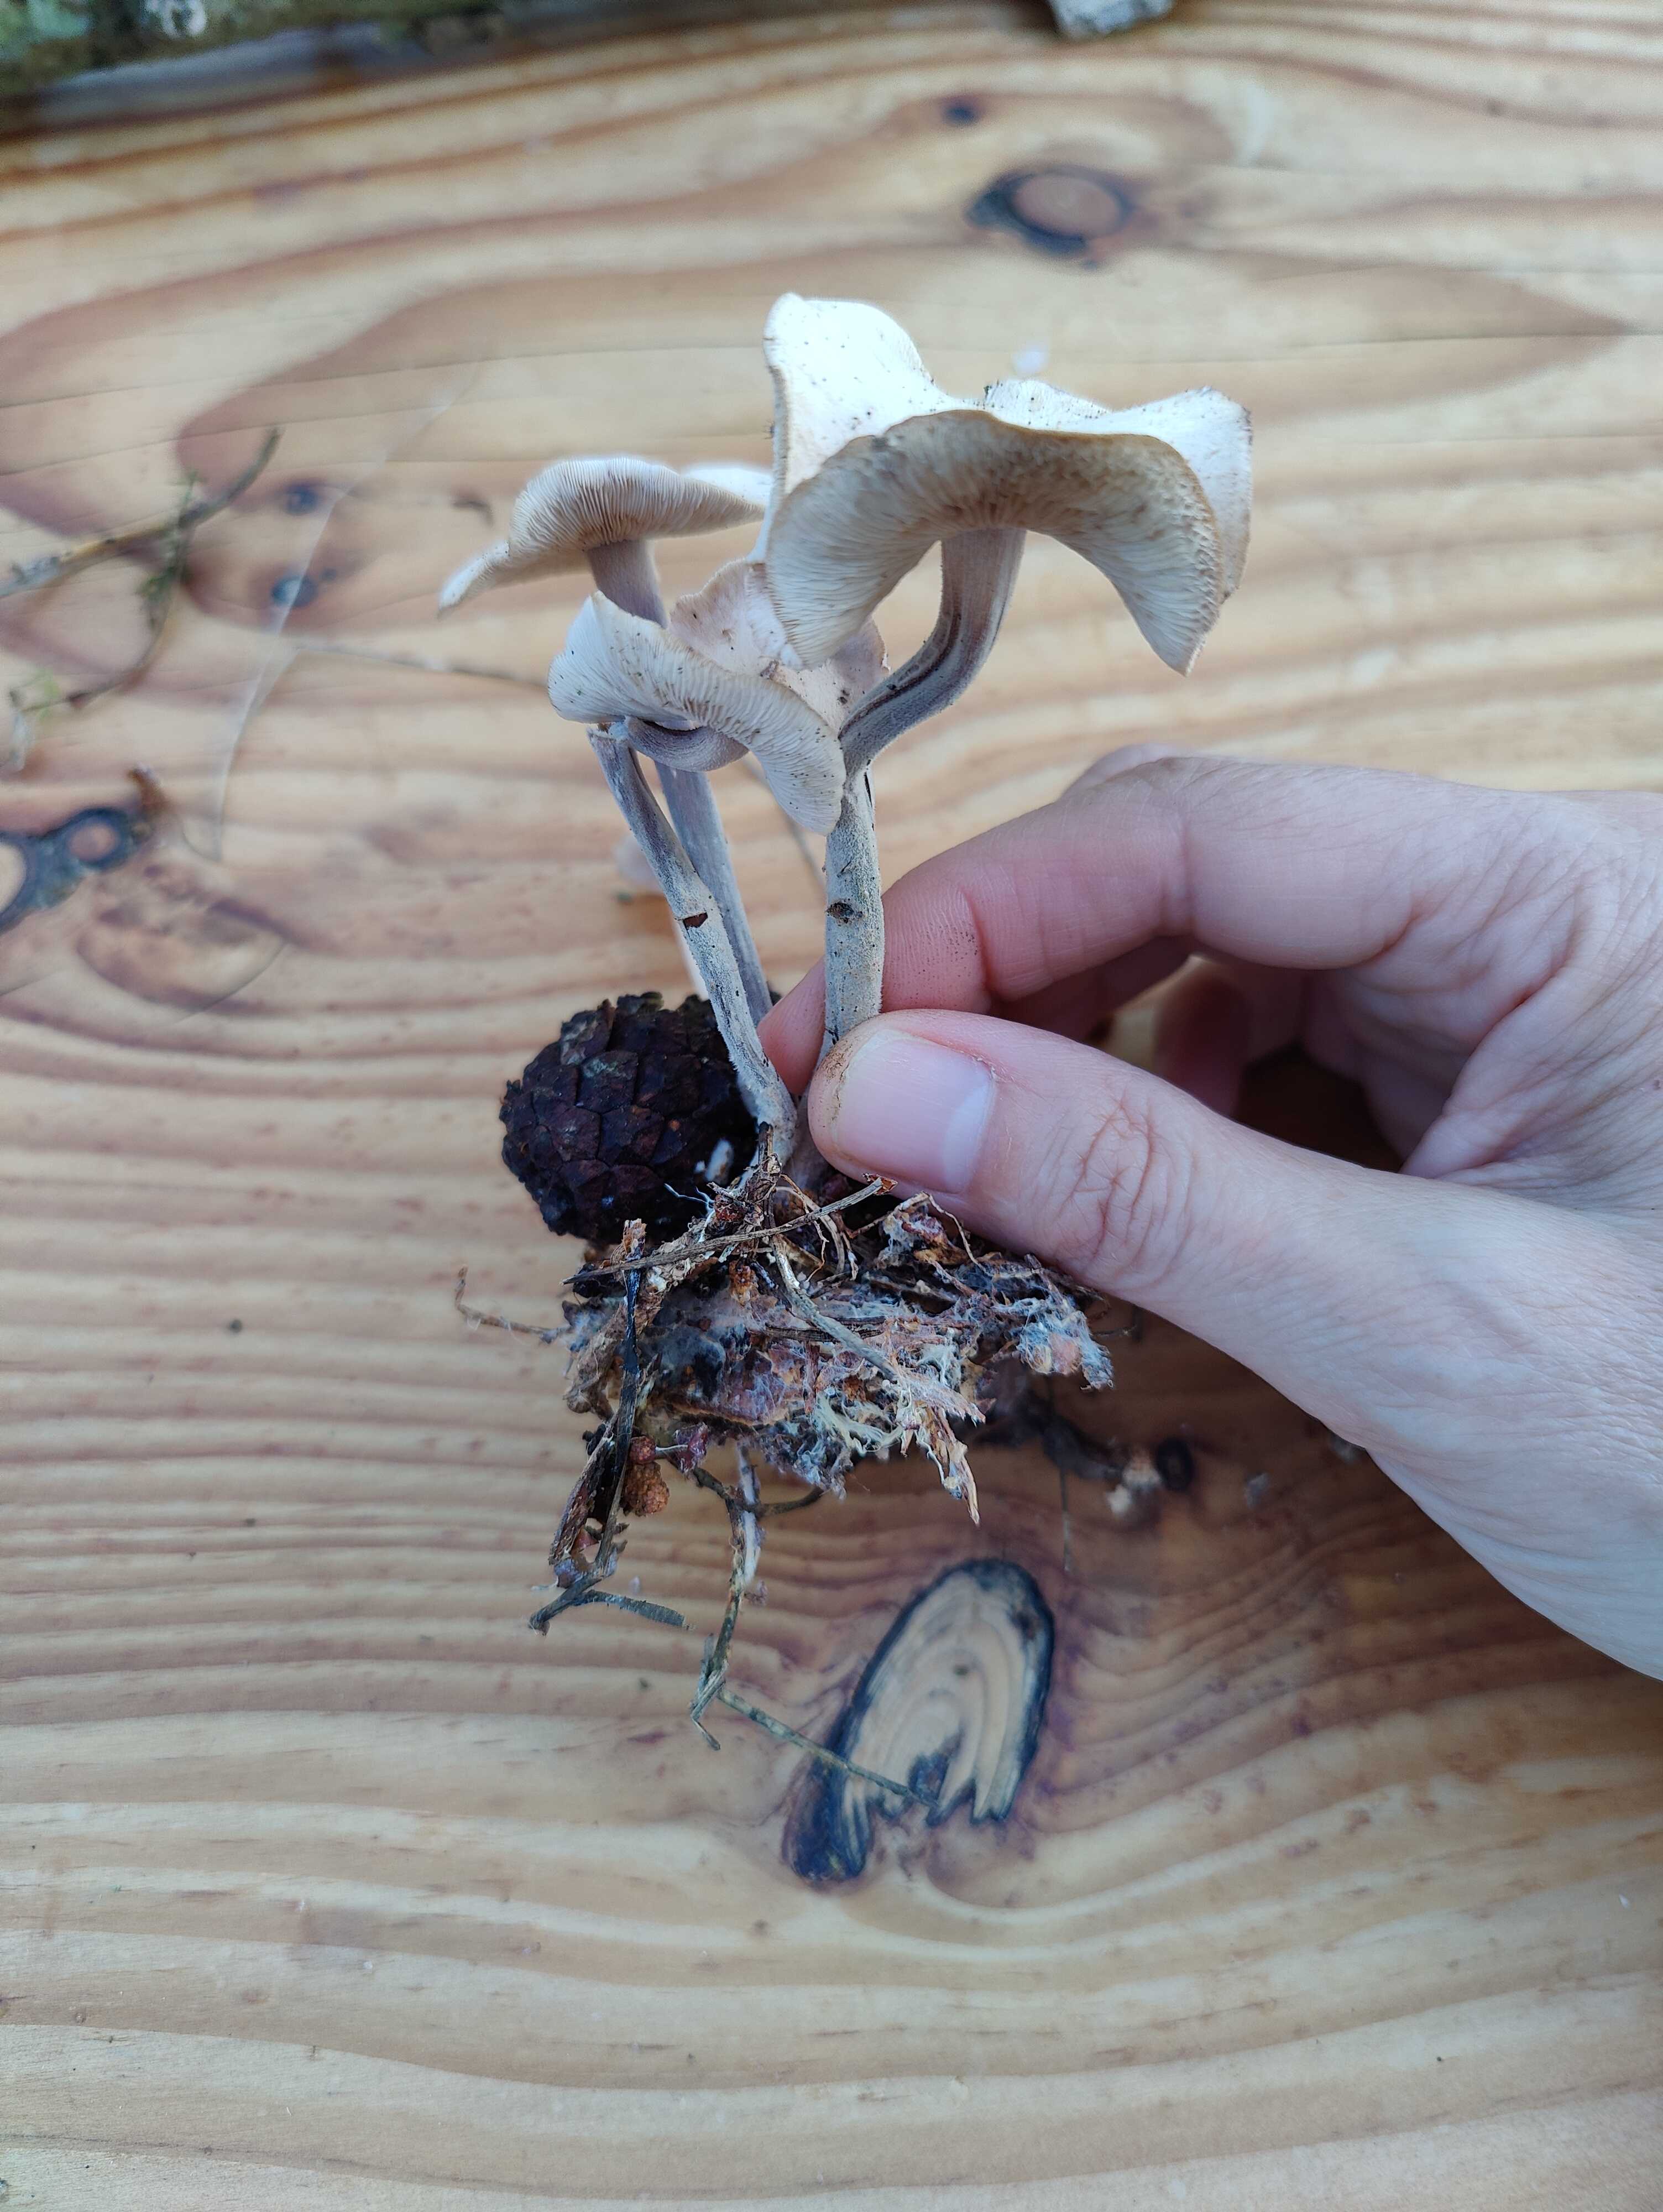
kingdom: Fungi
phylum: Basidiomycota
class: Agaricomycetes
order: Agaricales
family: Omphalotaceae
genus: Collybiopsis
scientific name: Collybiopsis confluens
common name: knippe-fladhat
